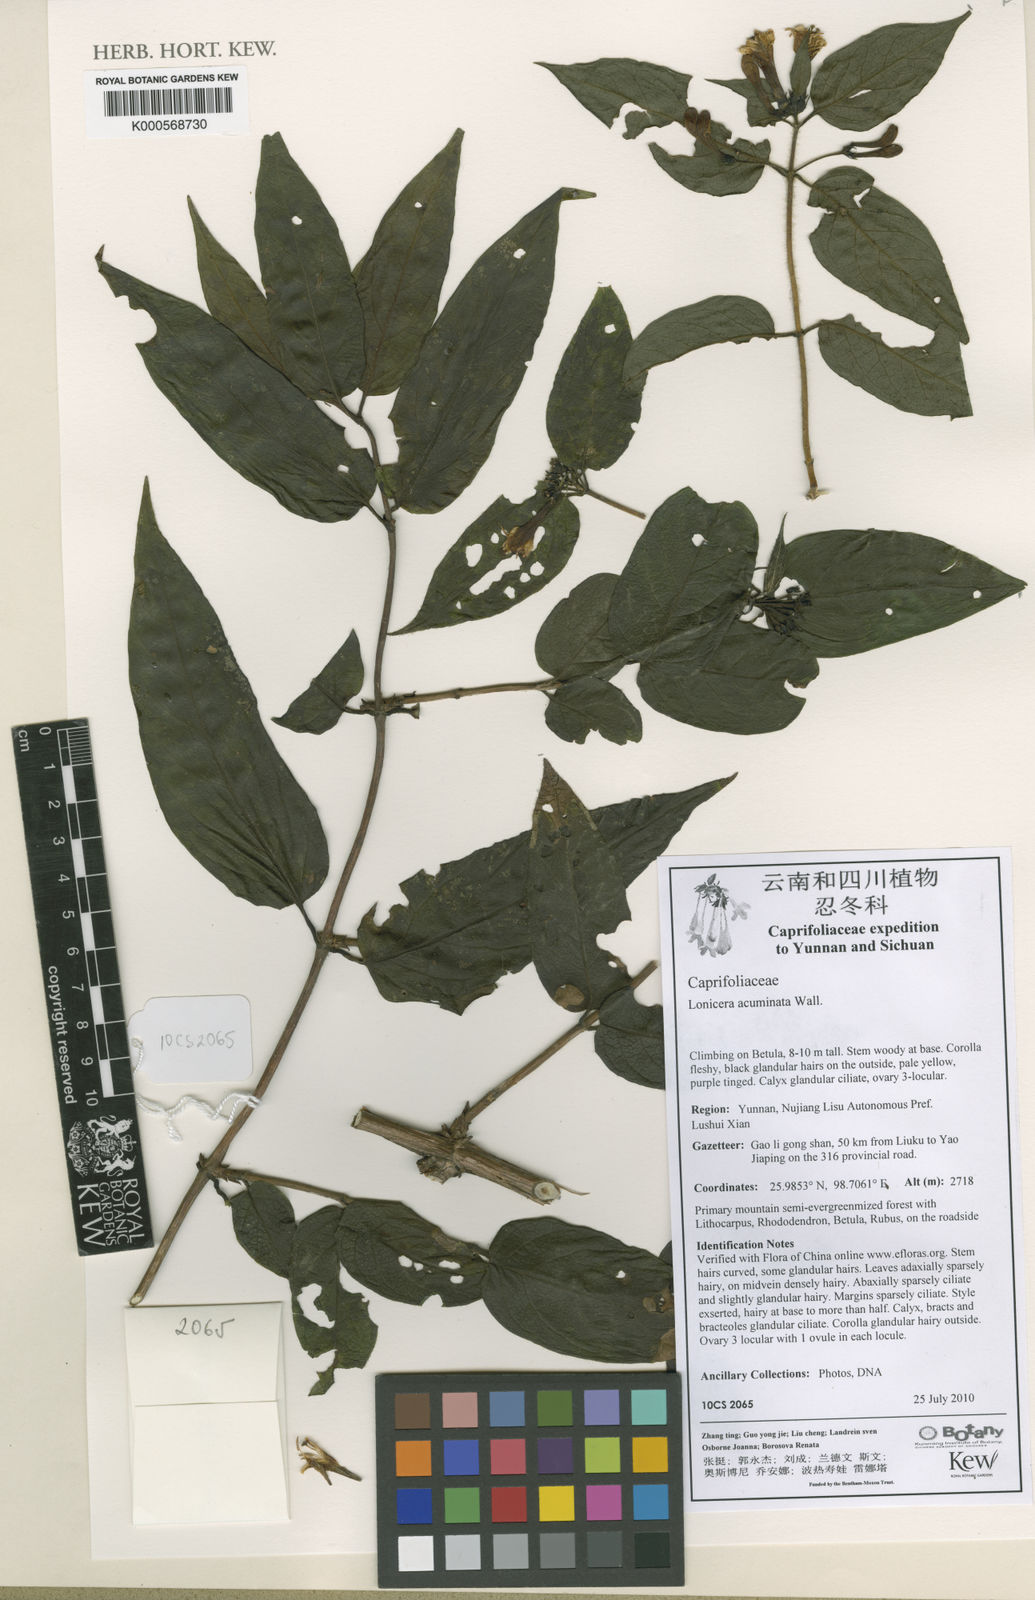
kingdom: Plantae
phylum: Tracheophyta
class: Magnoliopsida
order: Dipsacales
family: Caprifoliaceae
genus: Lonicera
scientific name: Lonicera acuminata
